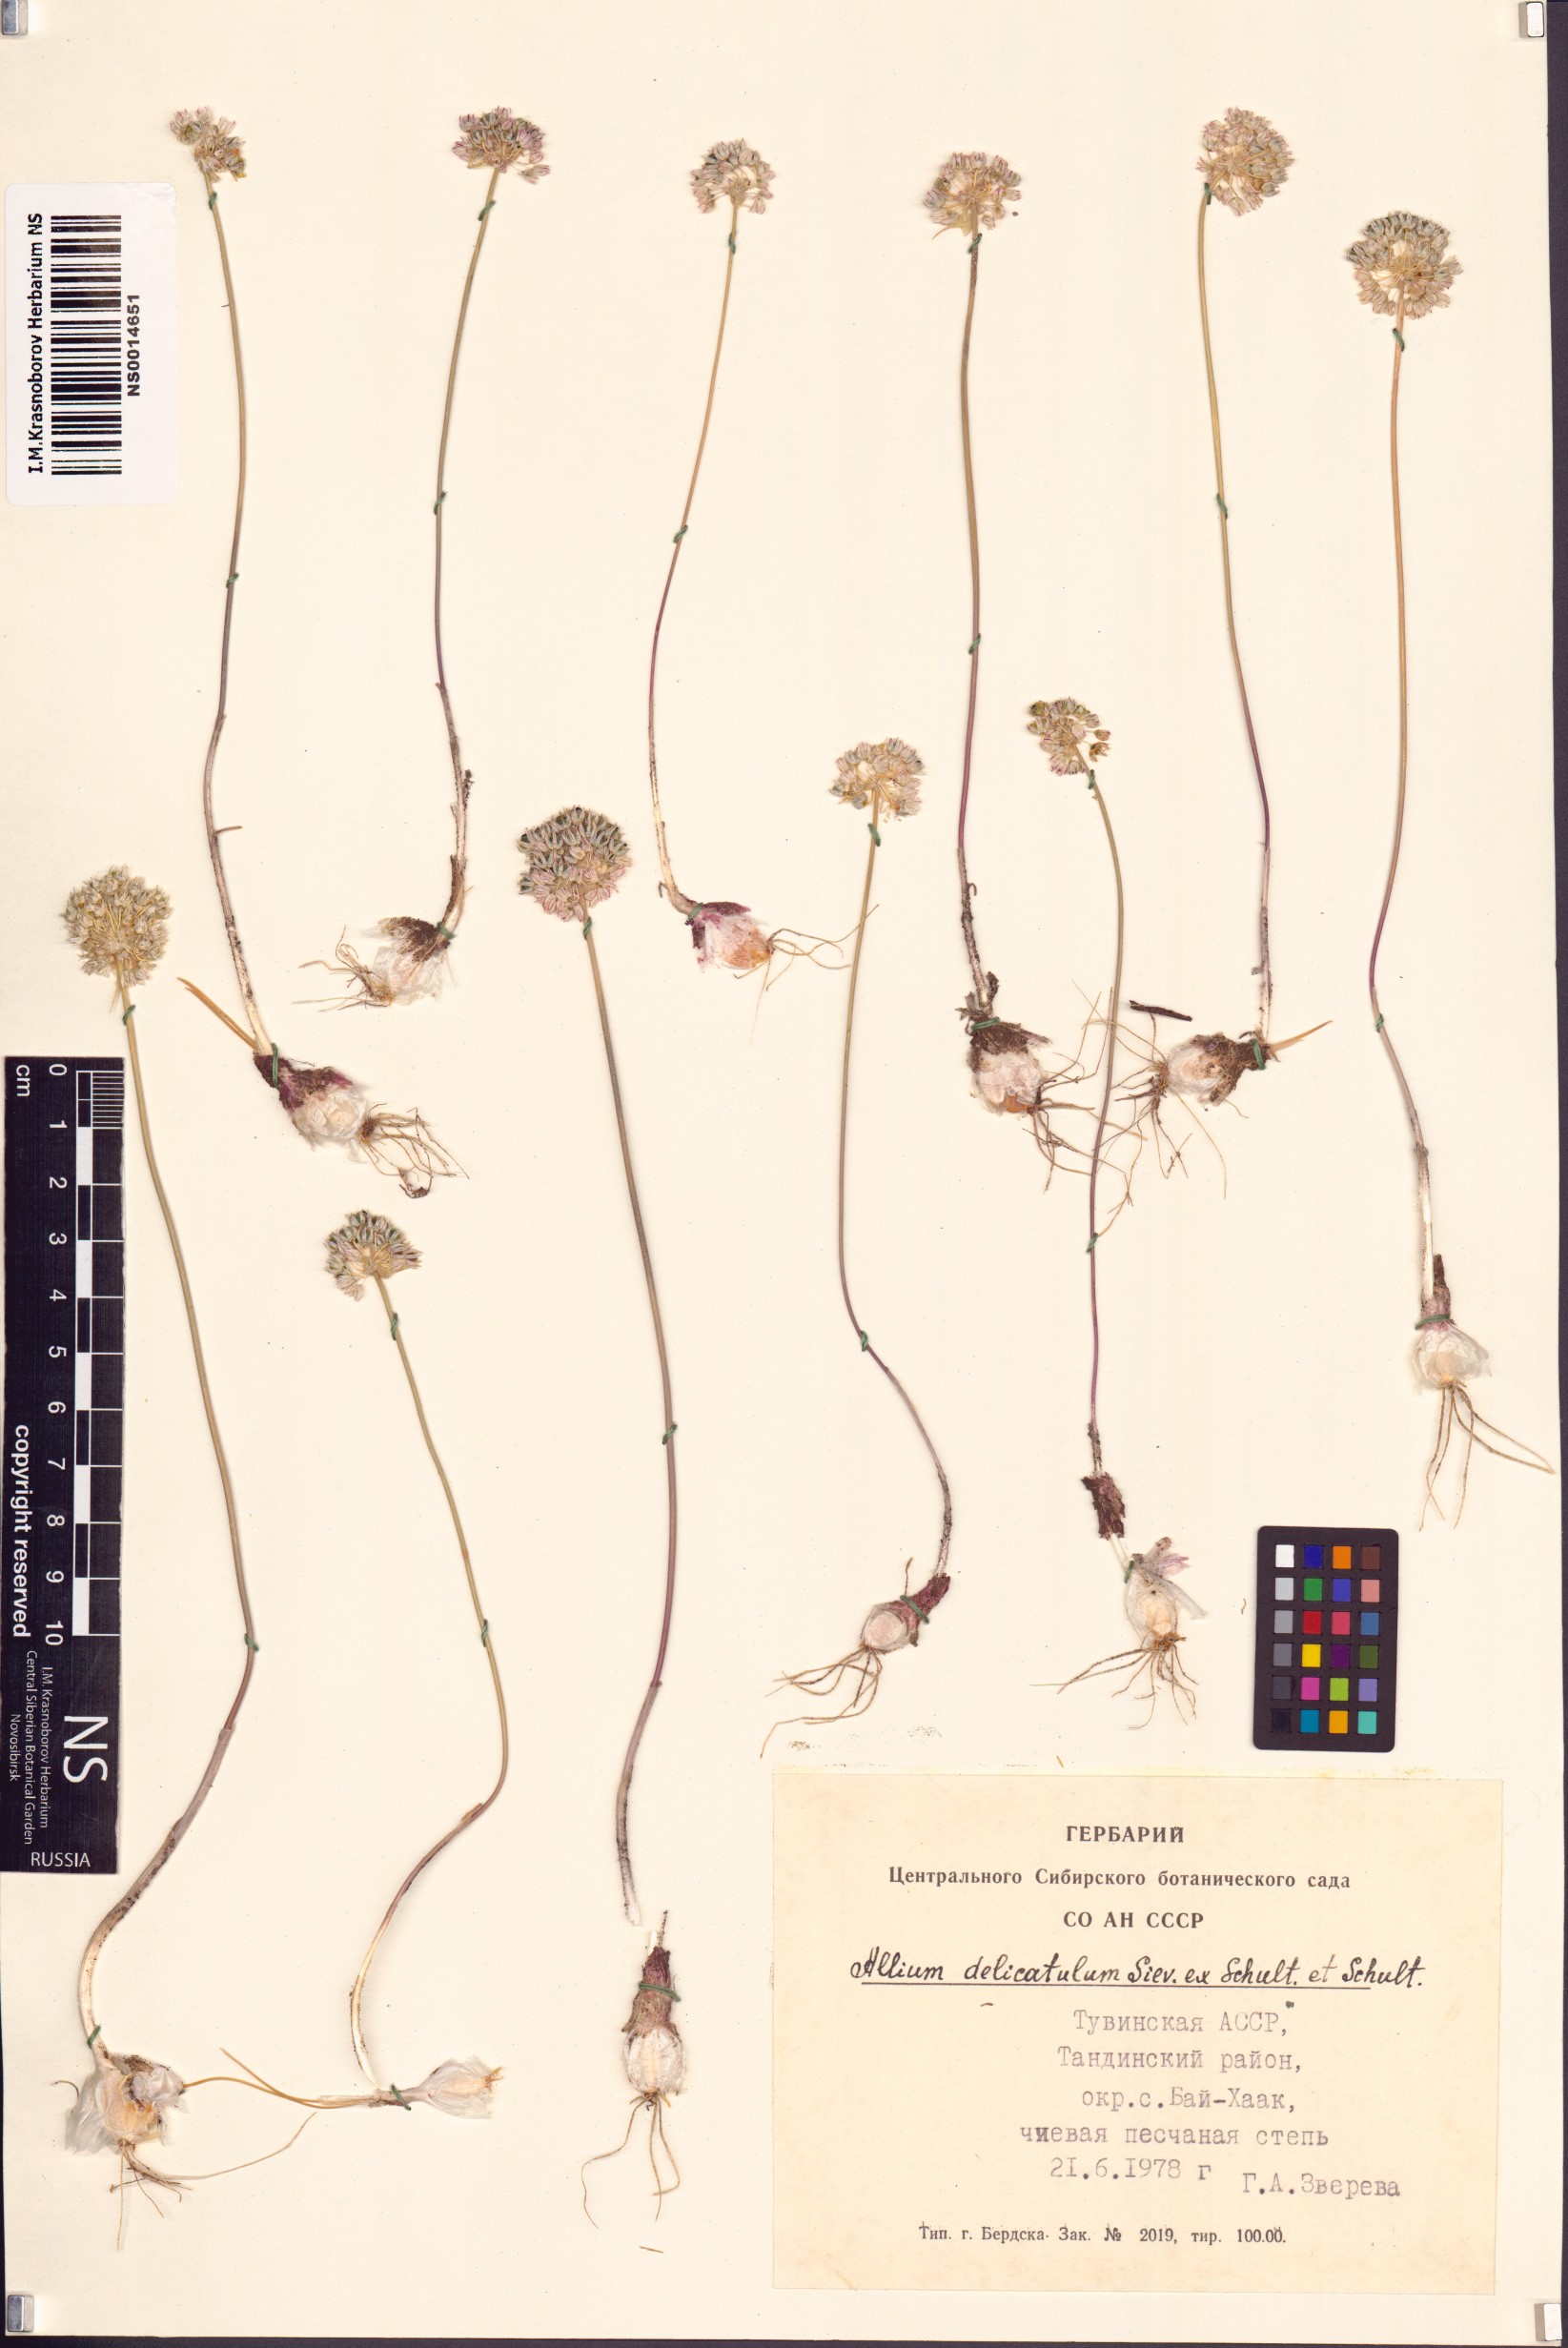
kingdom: Plantae
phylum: Tracheophyta
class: Liliopsida
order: Asparagales
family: Amaryllidaceae
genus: Allium
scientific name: Allium delicatulum
